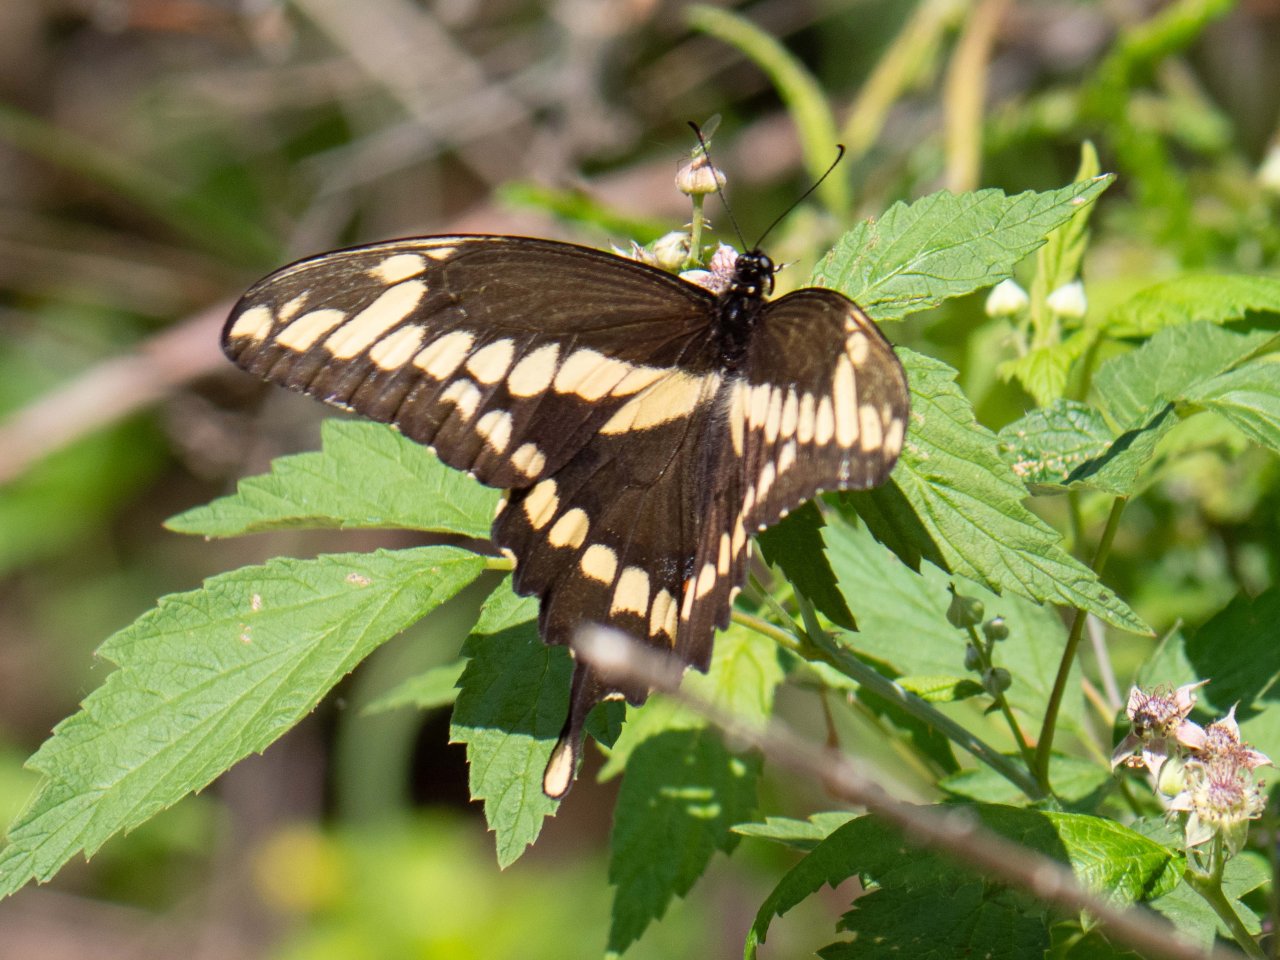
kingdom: Animalia
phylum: Arthropoda
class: Insecta
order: Lepidoptera
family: Papilionidae
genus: Papilio
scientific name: Papilio cresphontes
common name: Eastern Giant Swallowtail
